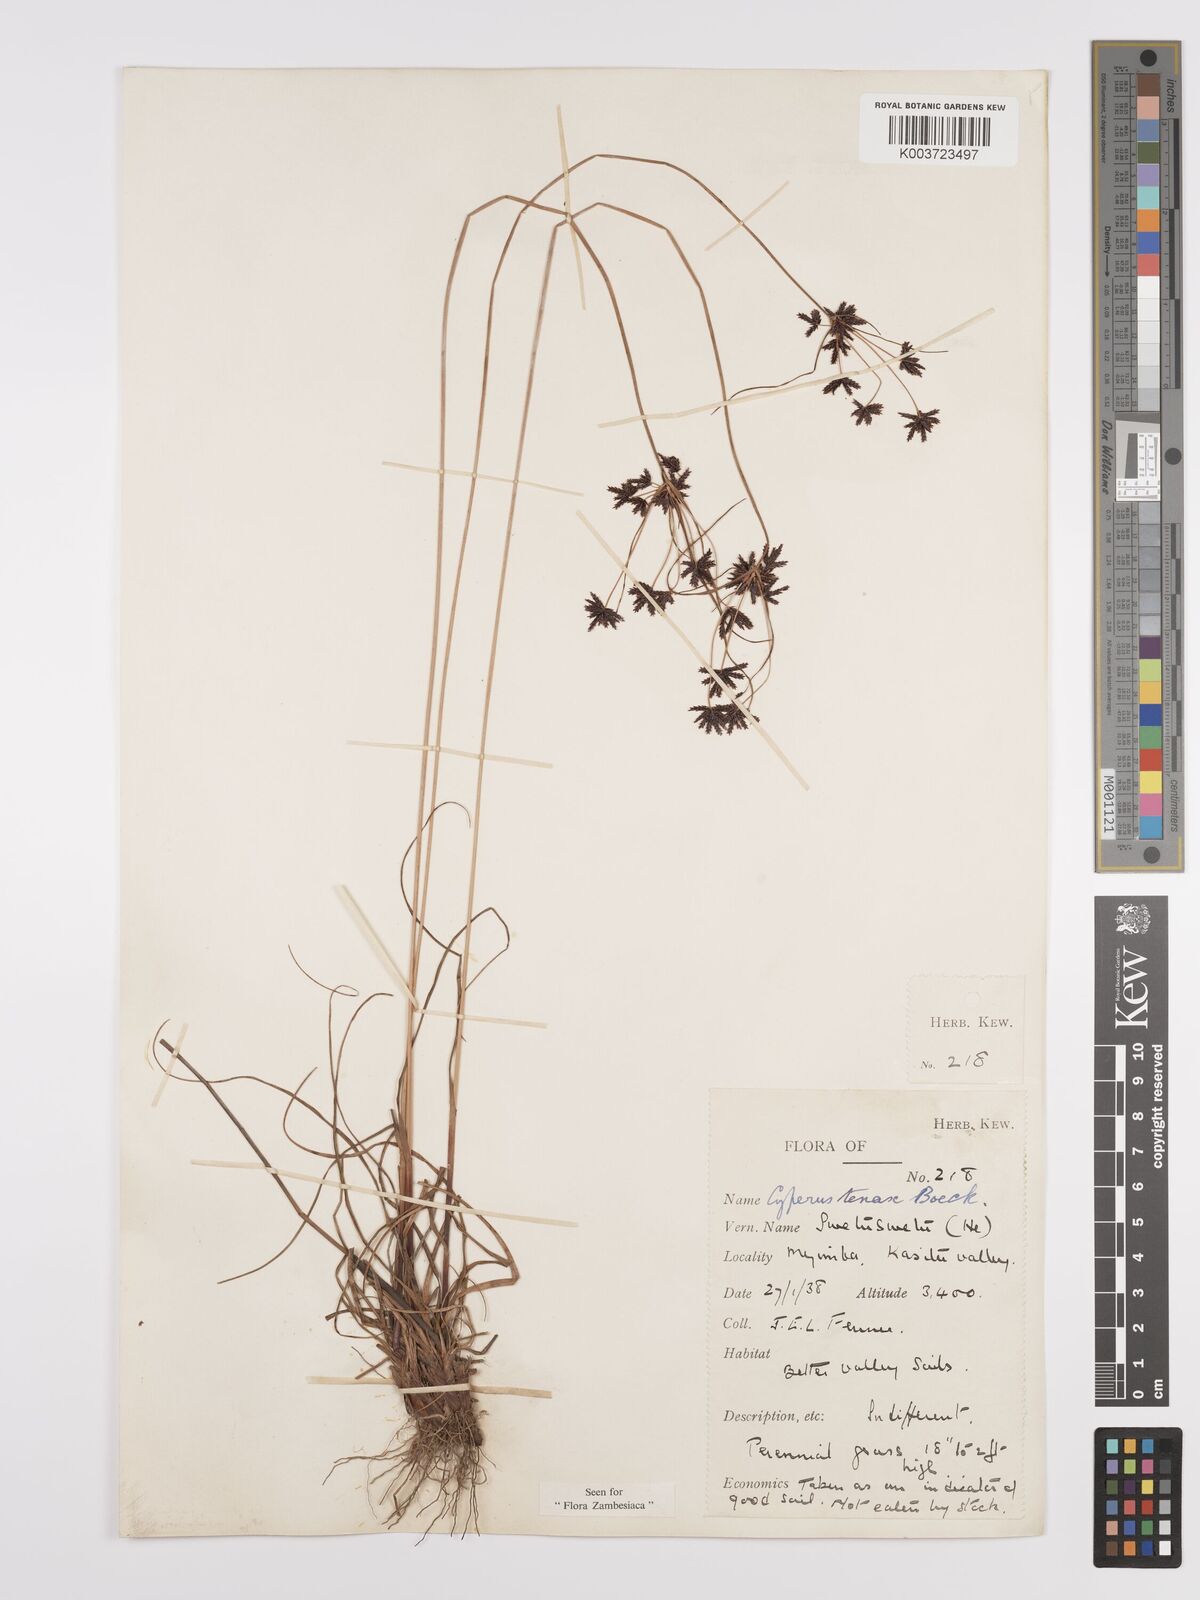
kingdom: Plantae
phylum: Tracheophyta
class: Liliopsida
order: Poales
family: Cyperaceae
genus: Cyperus
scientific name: Cyperus tenax
